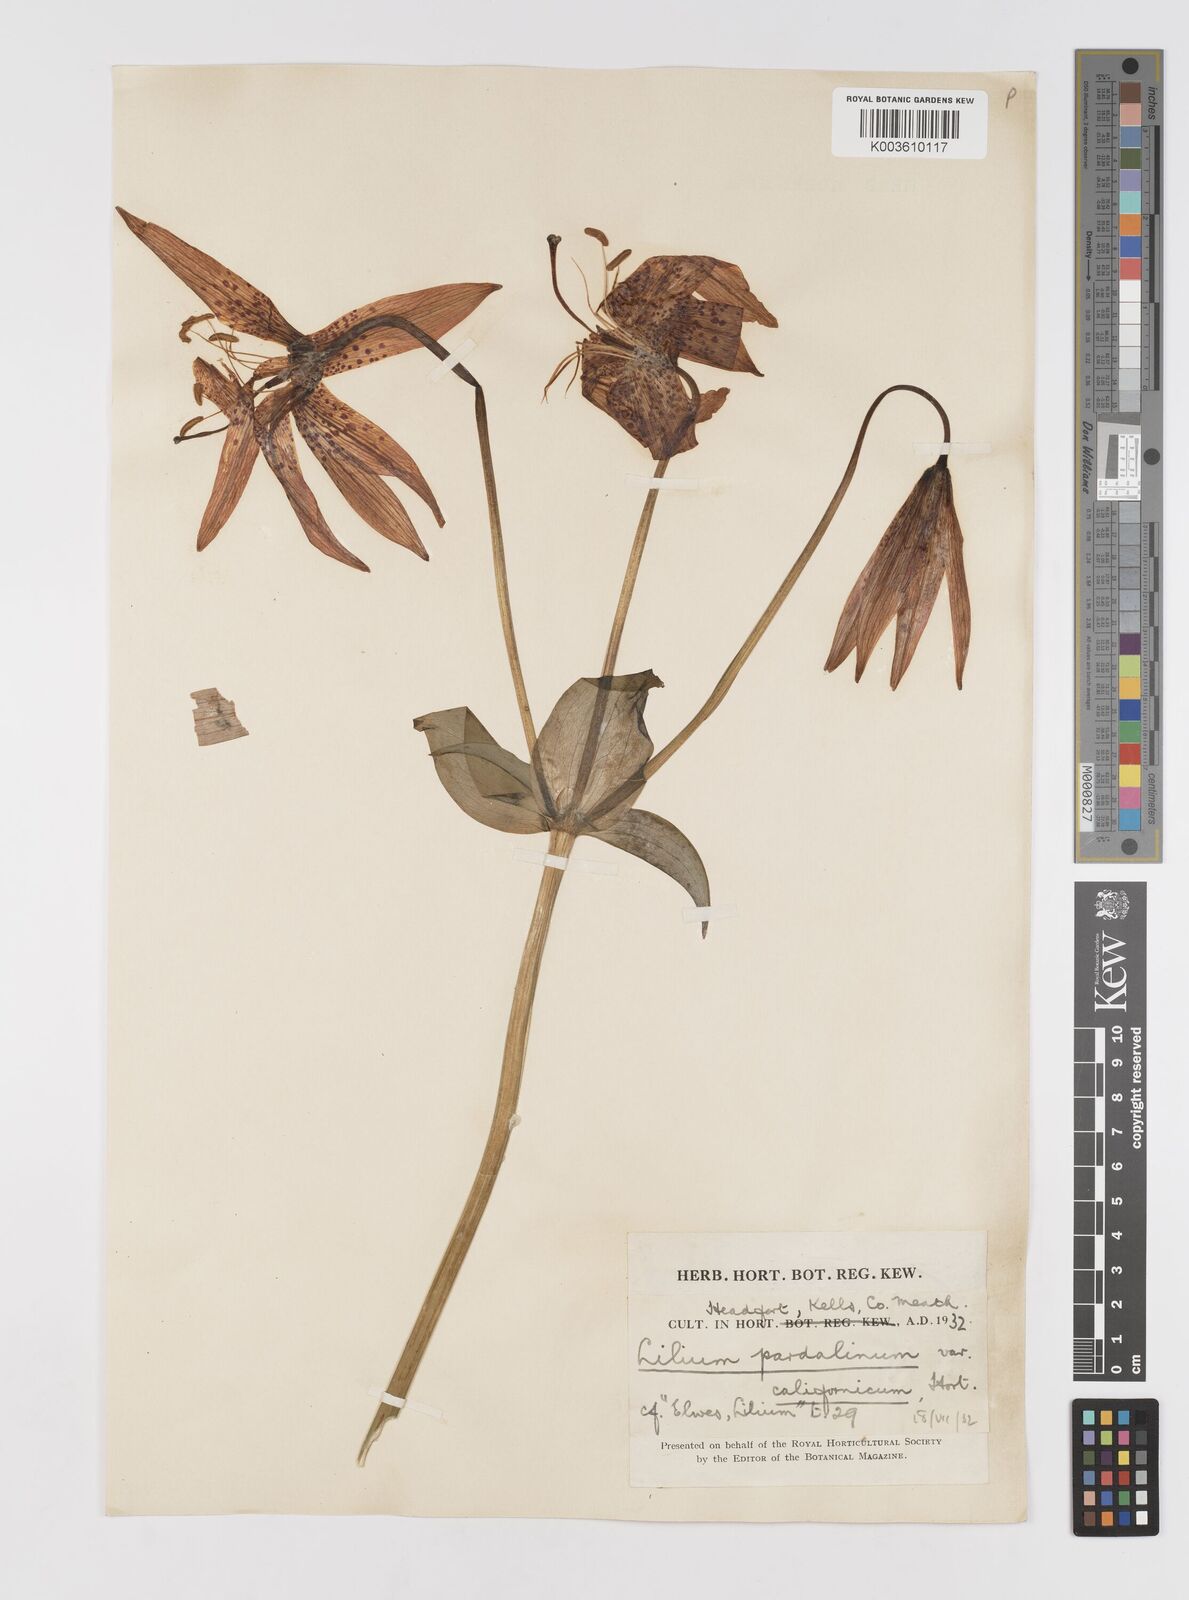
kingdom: Plantae
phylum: Tracheophyta
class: Liliopsida
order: Liliales
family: Liliaceae
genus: Lilium
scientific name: Lilium pardalinum
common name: Panther lily
